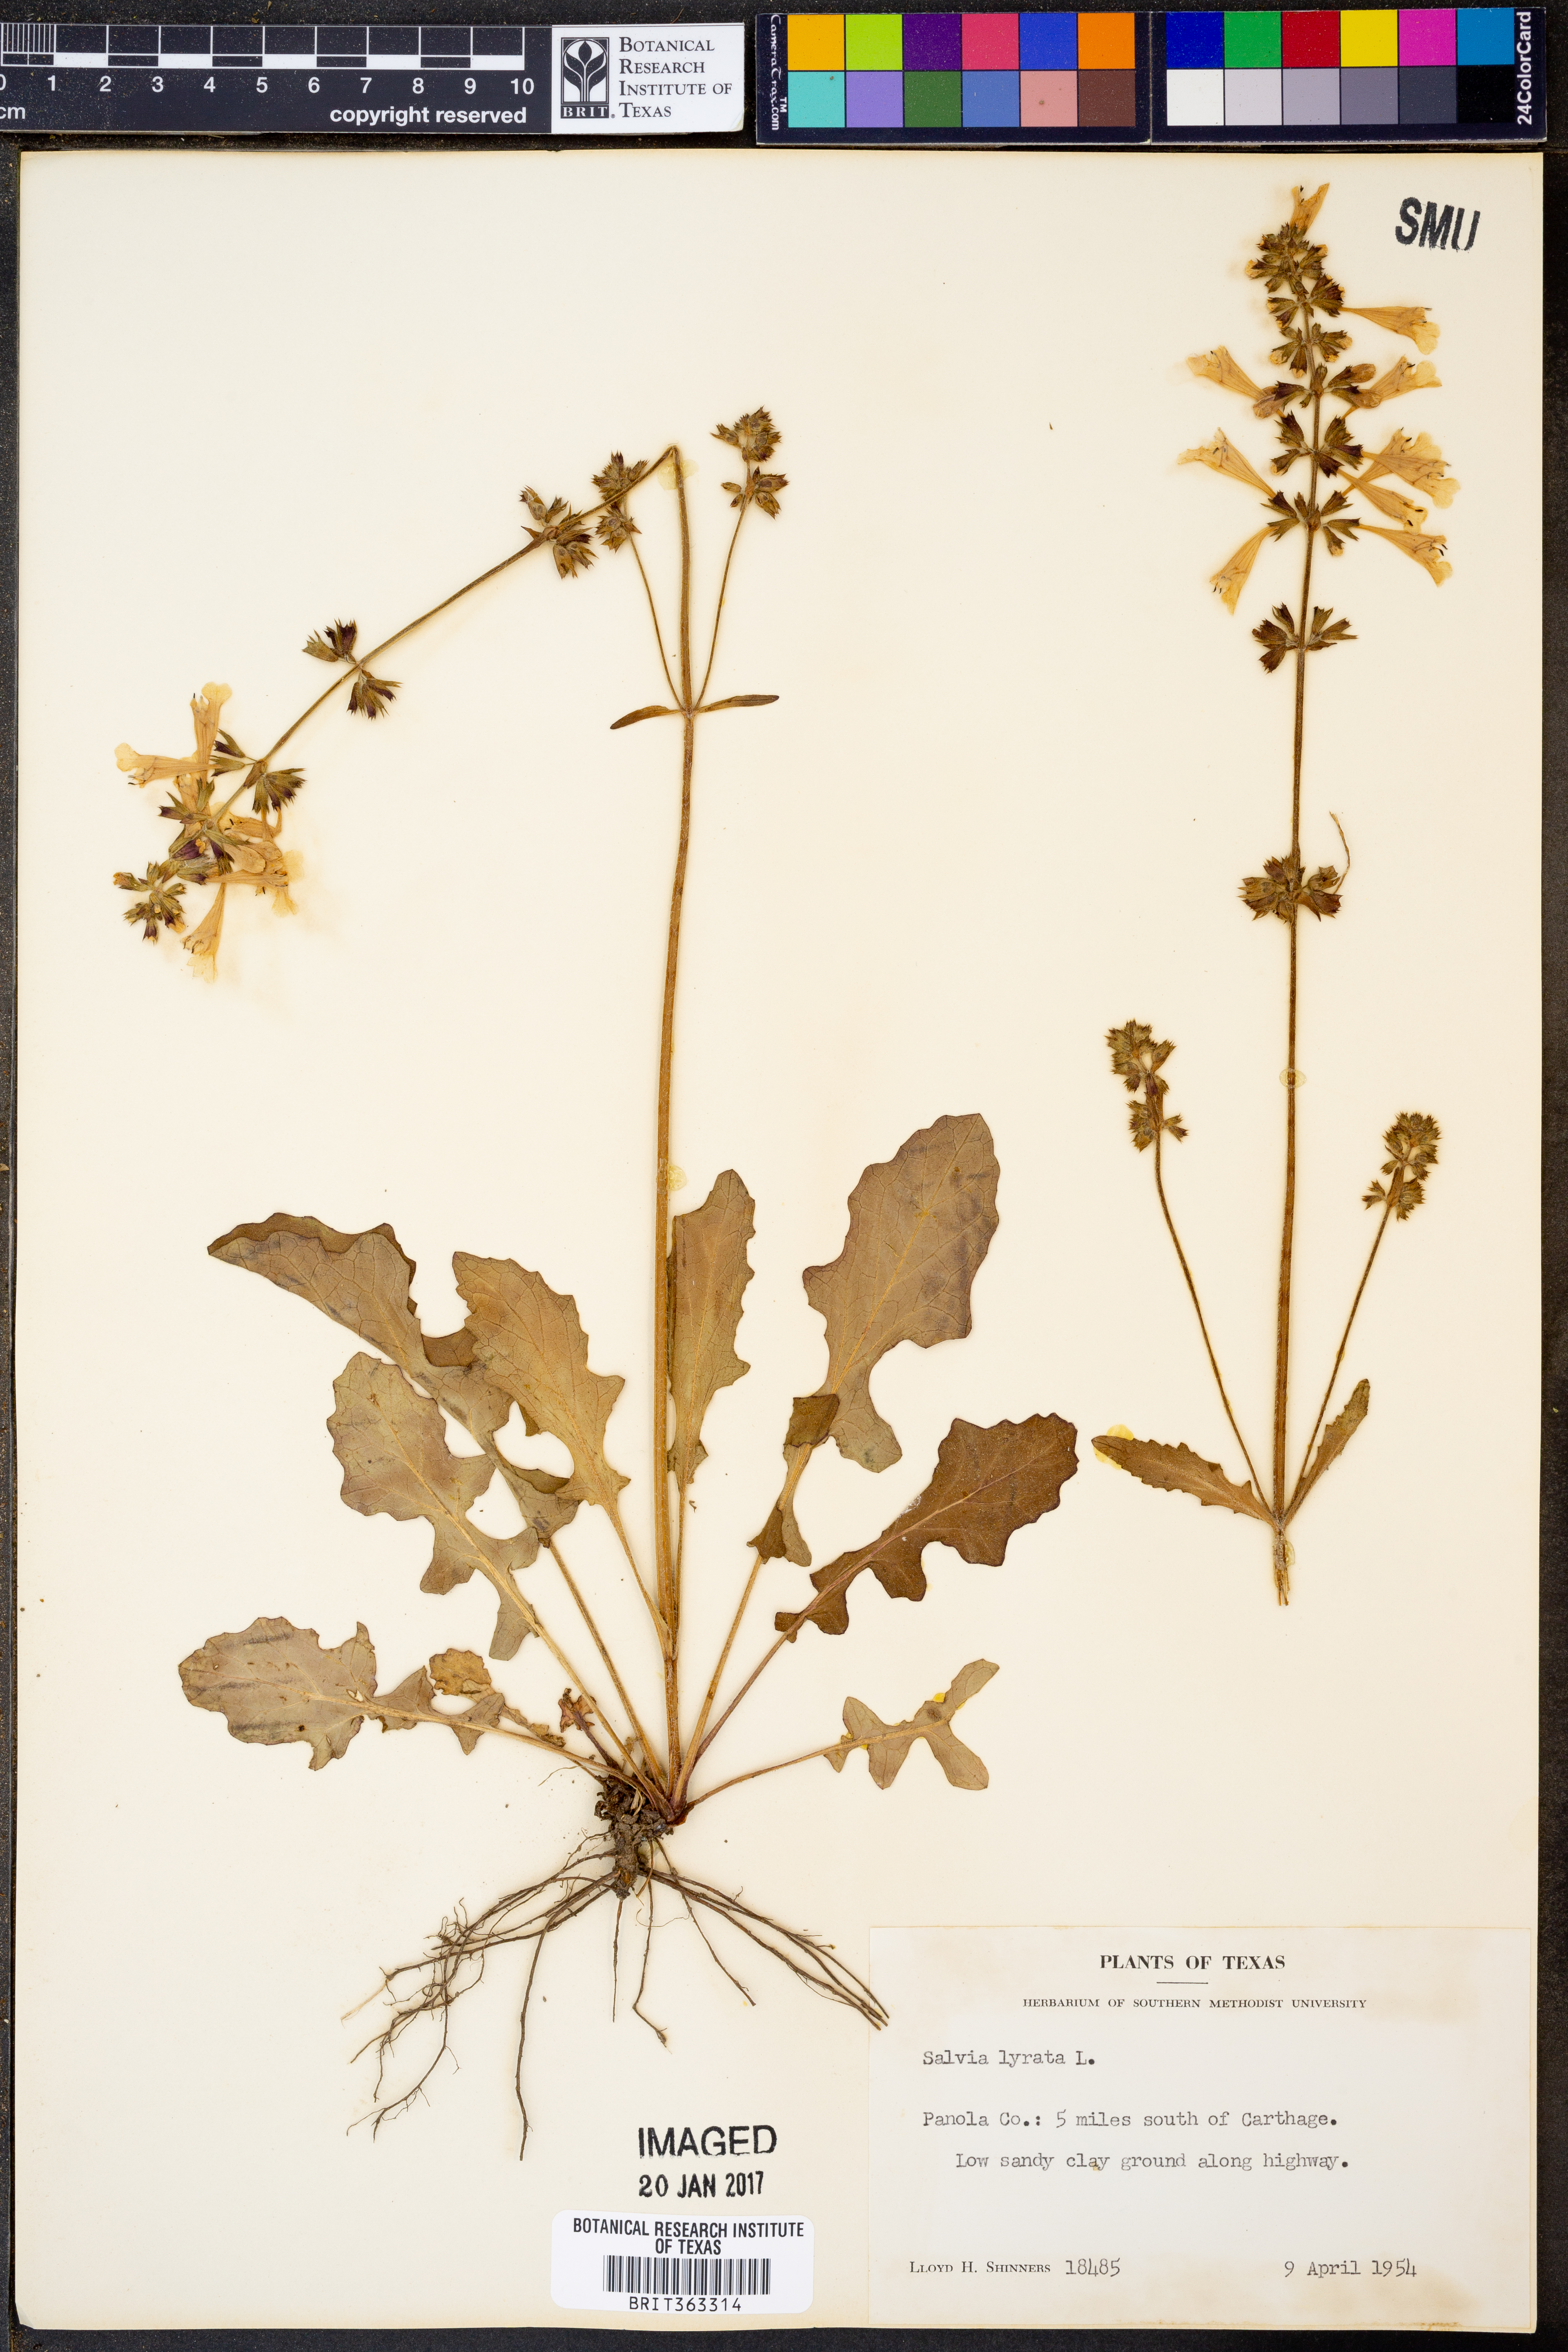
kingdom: Plantae
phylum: Tracheophyta
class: Magnoliopsida
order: Lamiales
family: Lamiaceae
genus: Salvia
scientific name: Salvia lyrata
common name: Cancerweed
